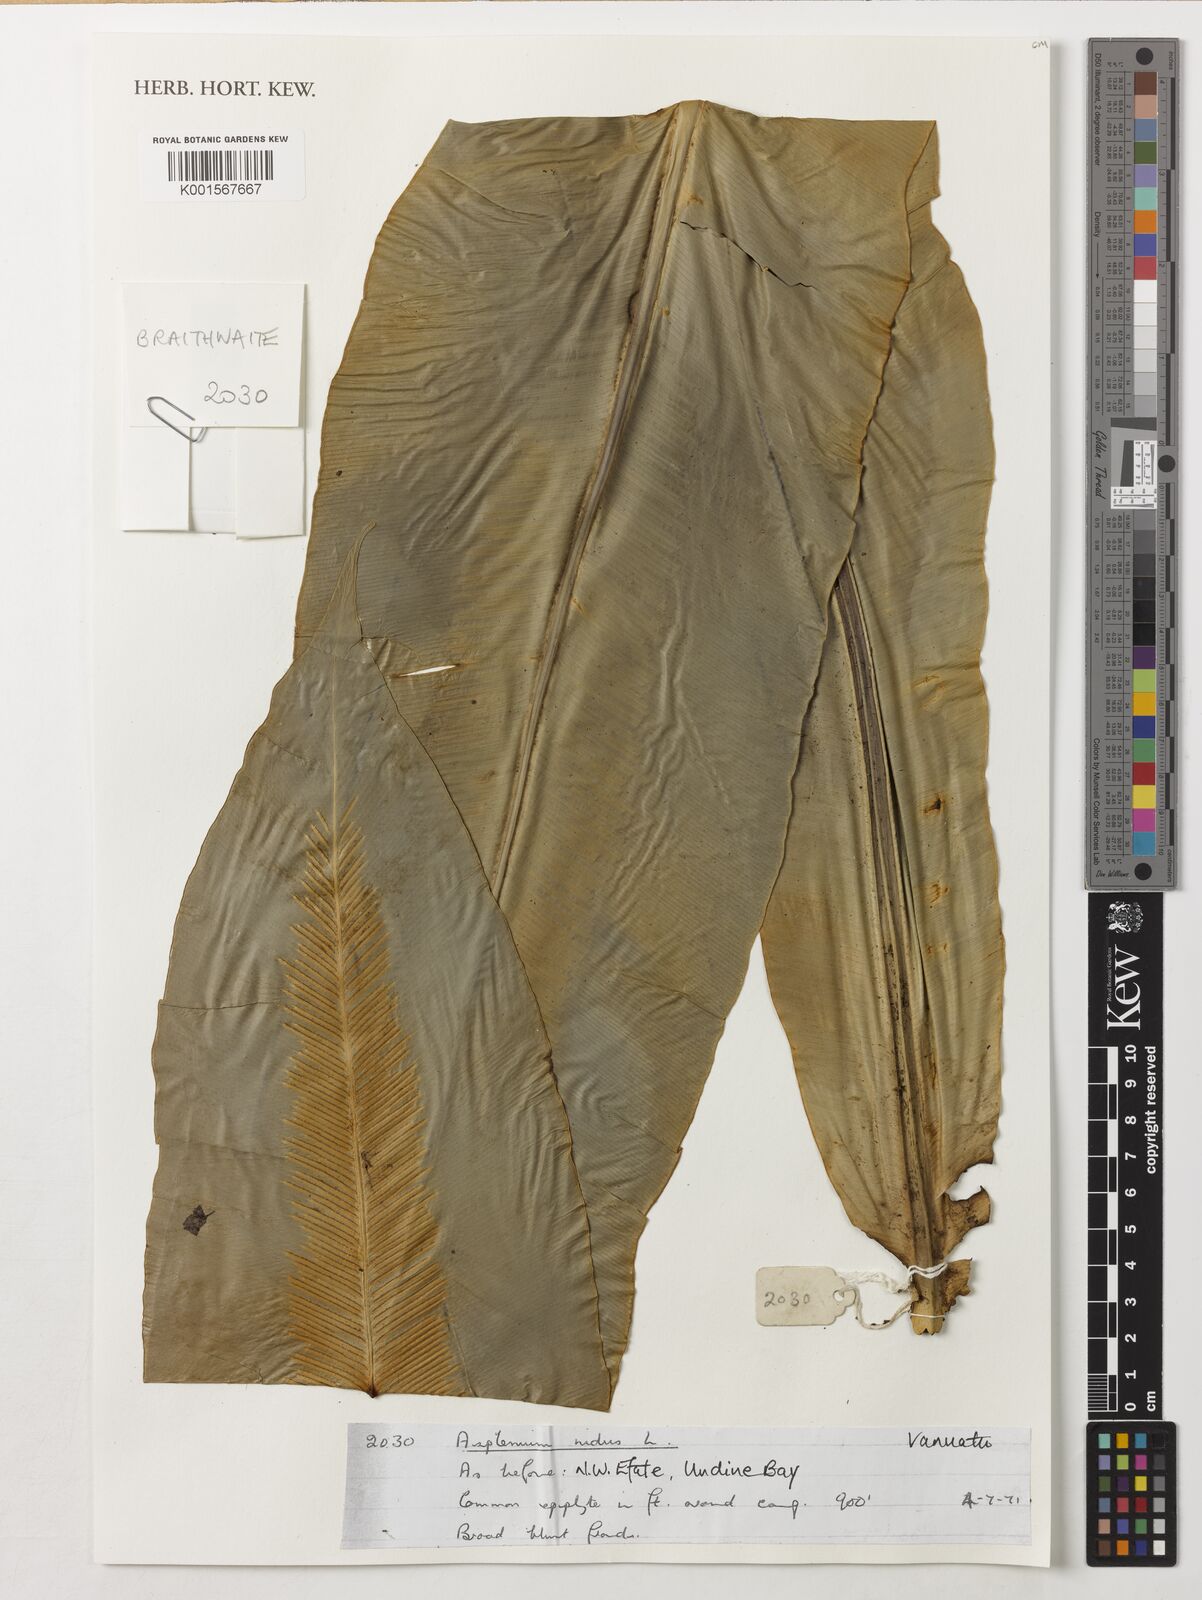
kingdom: Plantae
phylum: Tracheophyta
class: Polypodiopsida
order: Polypodiales
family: Aspleniaceae
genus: Asplenium
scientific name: Asplenium nidus
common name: Bird's-nest fern
